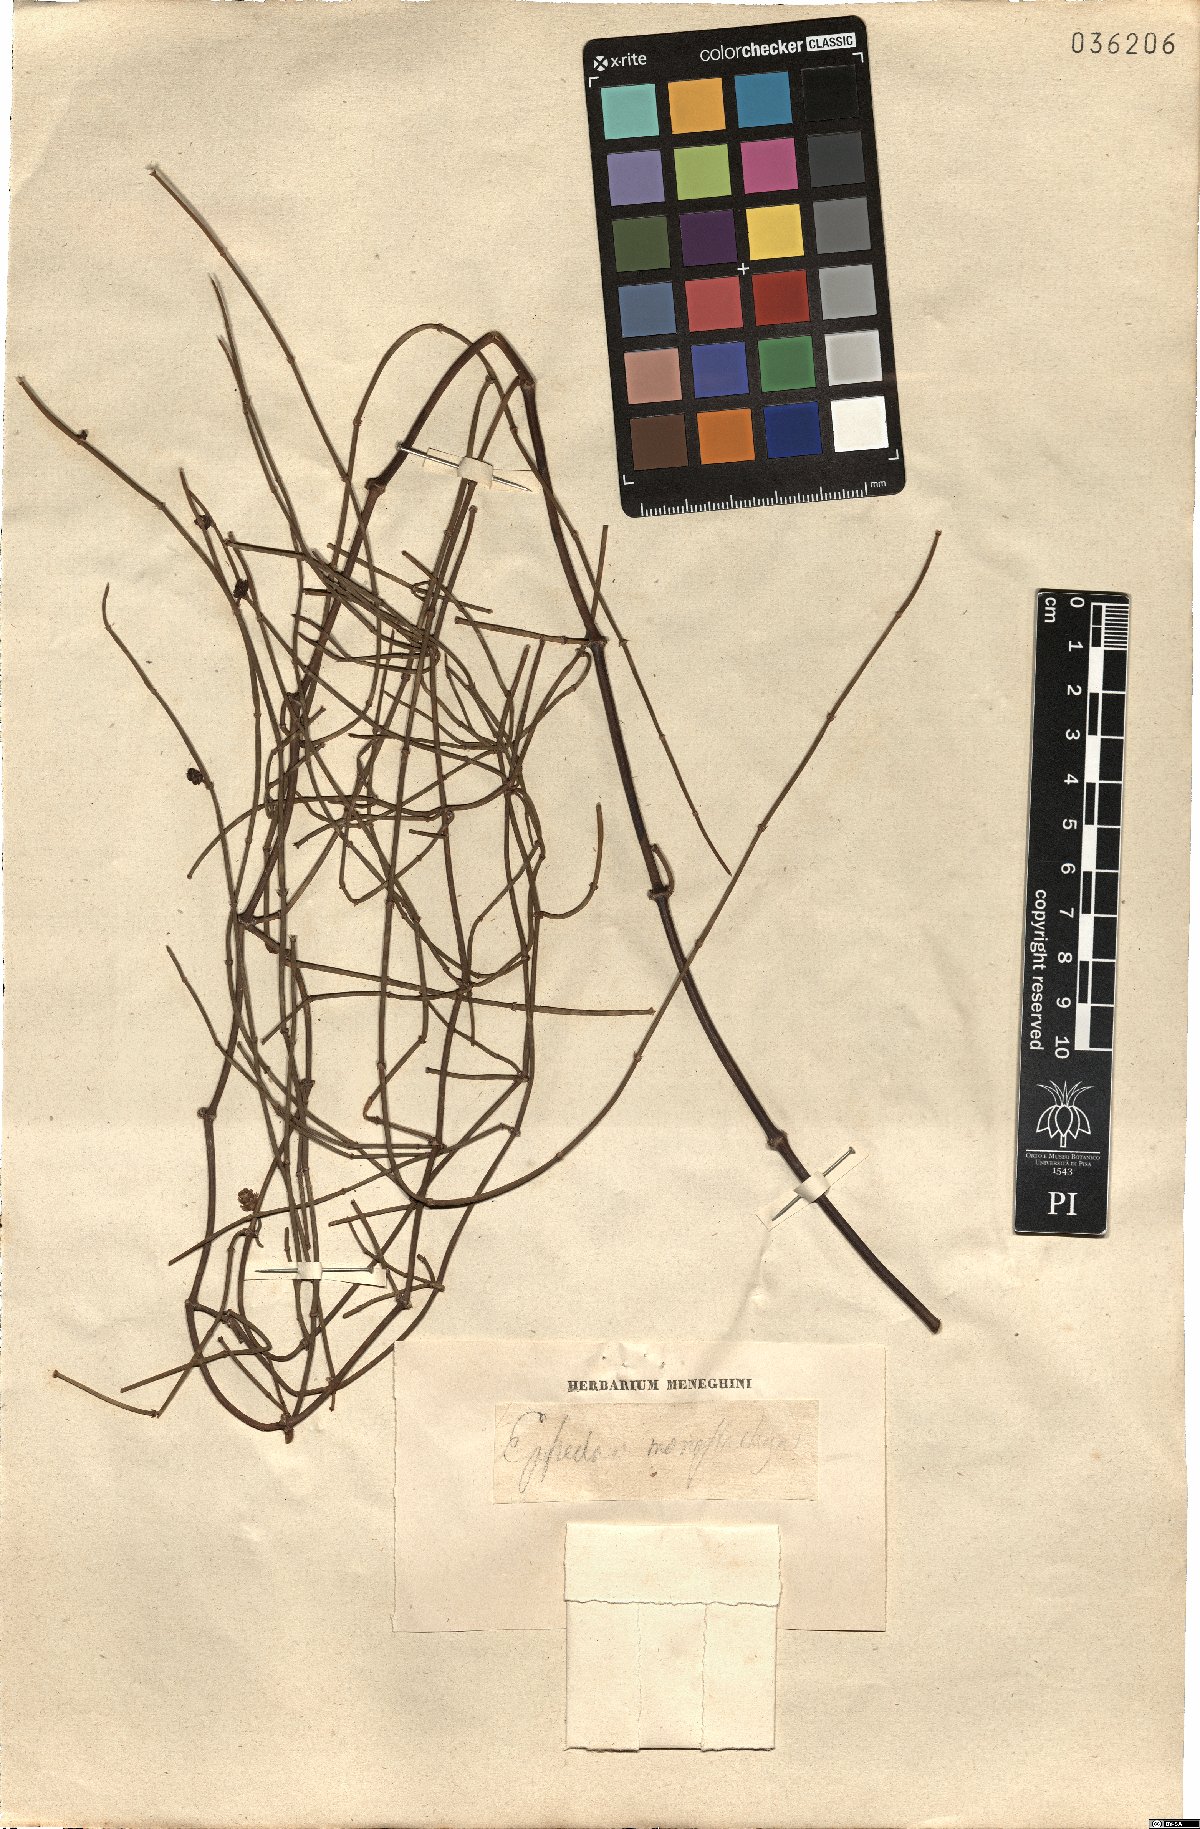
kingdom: Plantae
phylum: Tracheophyta
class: Gnetopsida
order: Ephedrales
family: Ephedraceae
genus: Ephedra
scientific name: Ephedra distachya
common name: Sea grape
